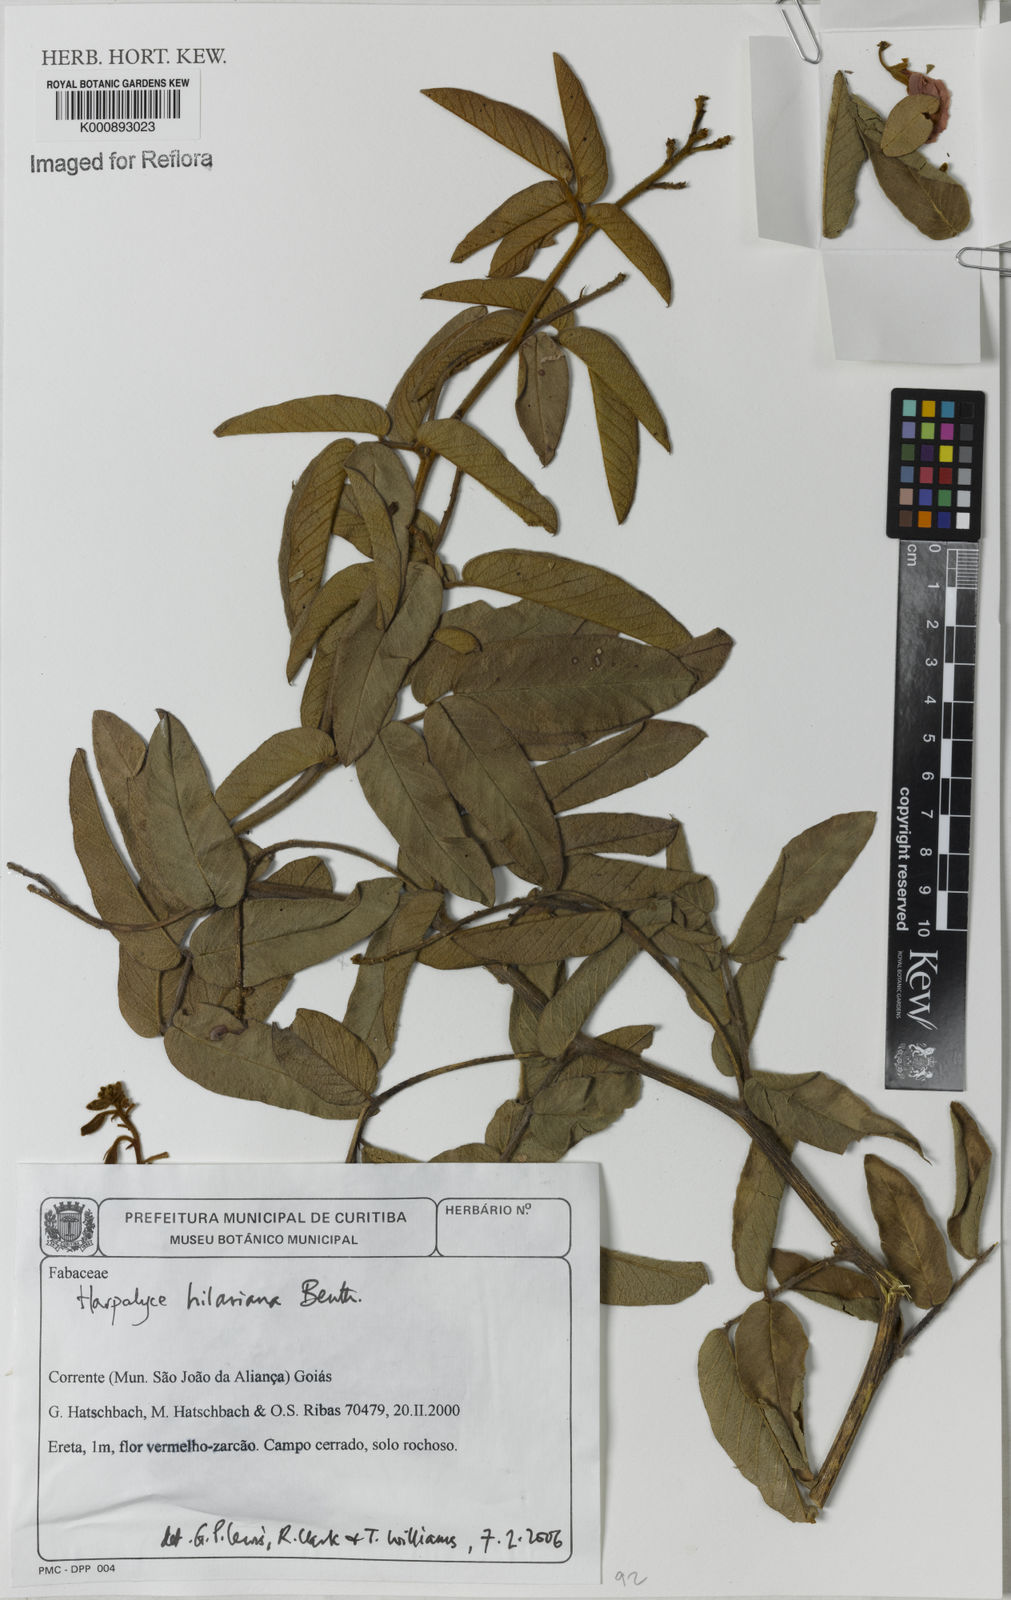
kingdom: Plantae
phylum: Tracheophyta
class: Magnoliopsida
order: Fabales
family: Fabaceae
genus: Harpalyce
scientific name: Harpalyce hilariana
